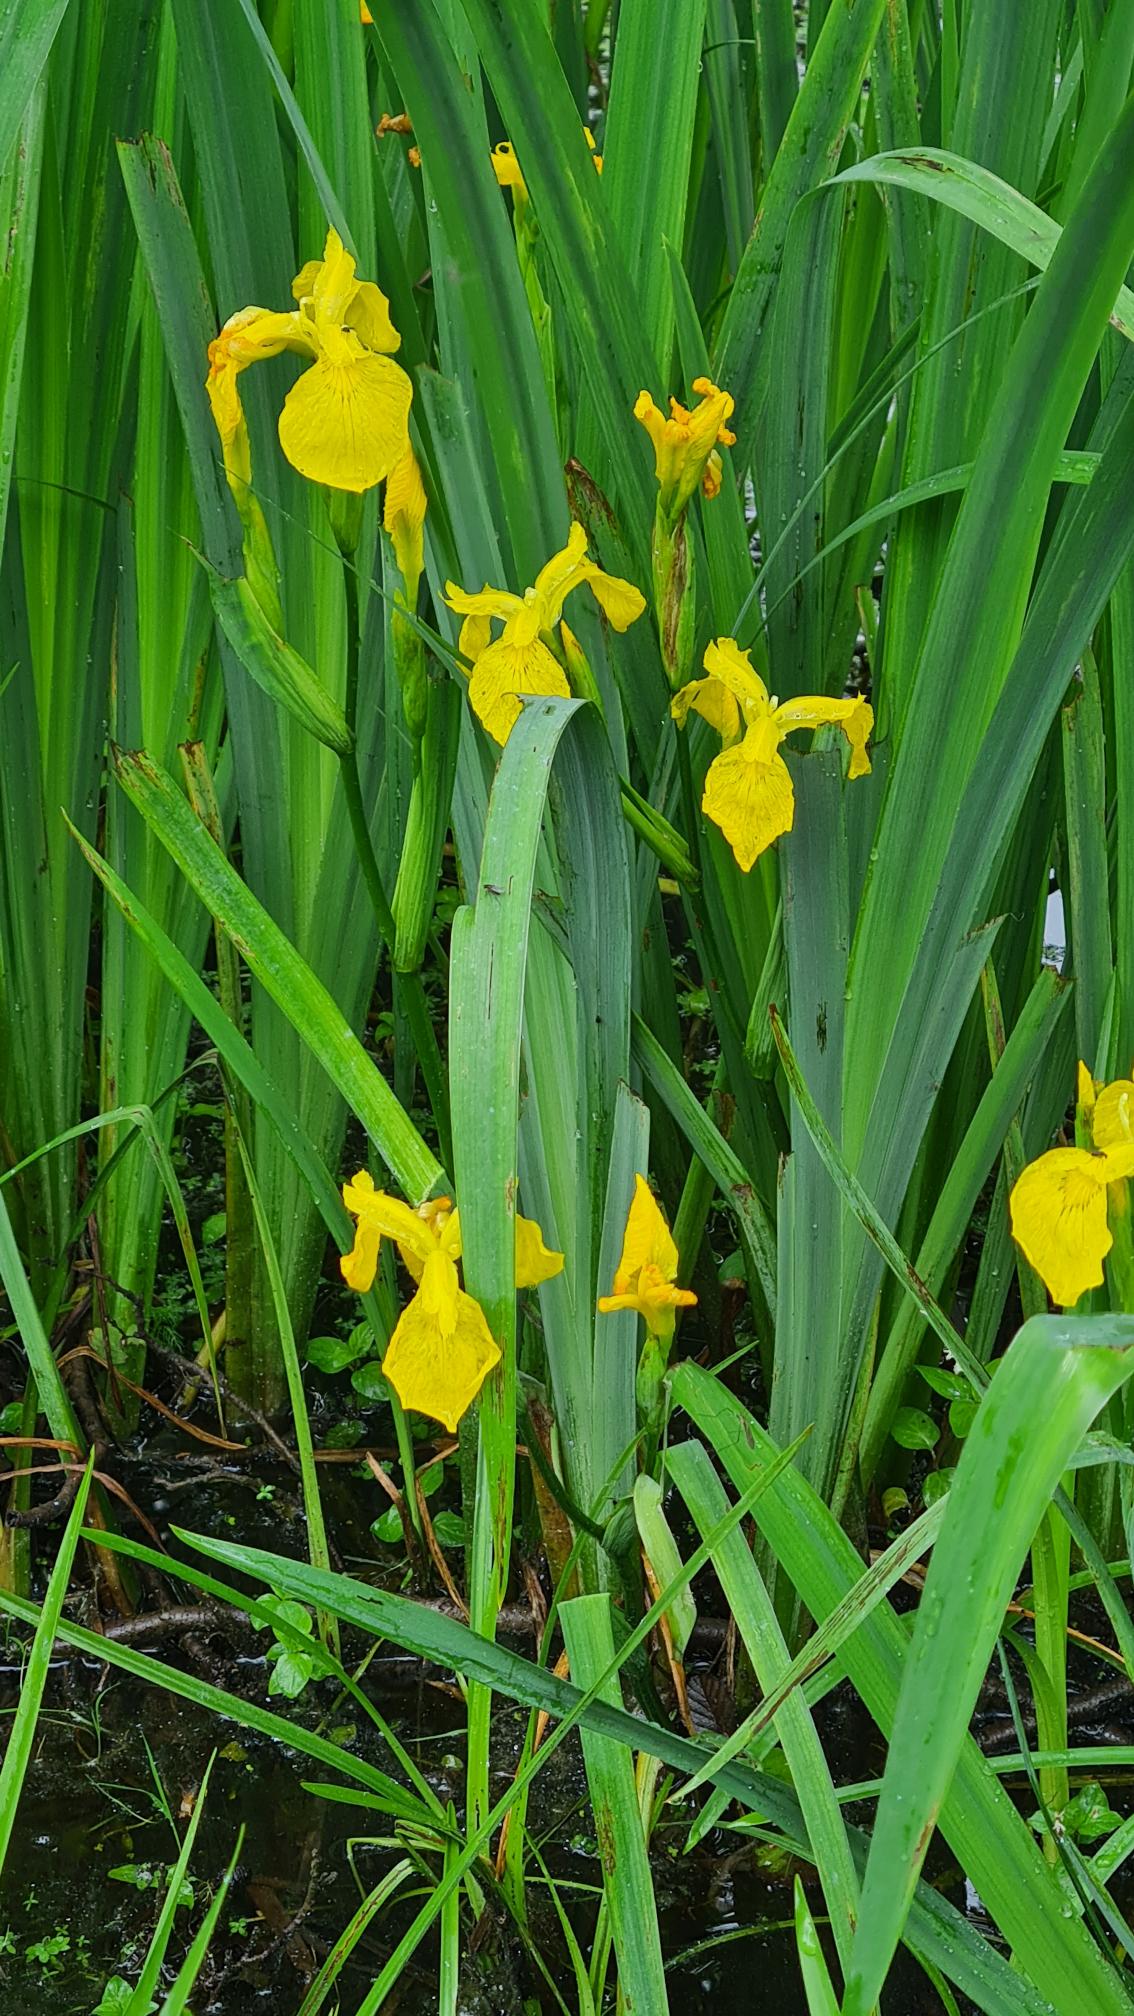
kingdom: Plantae
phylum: Tracheophyta
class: Liliopsida
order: Asparagales
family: Iridaceae
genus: Iris
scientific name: Iris pseudacorus
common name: Gul iris
